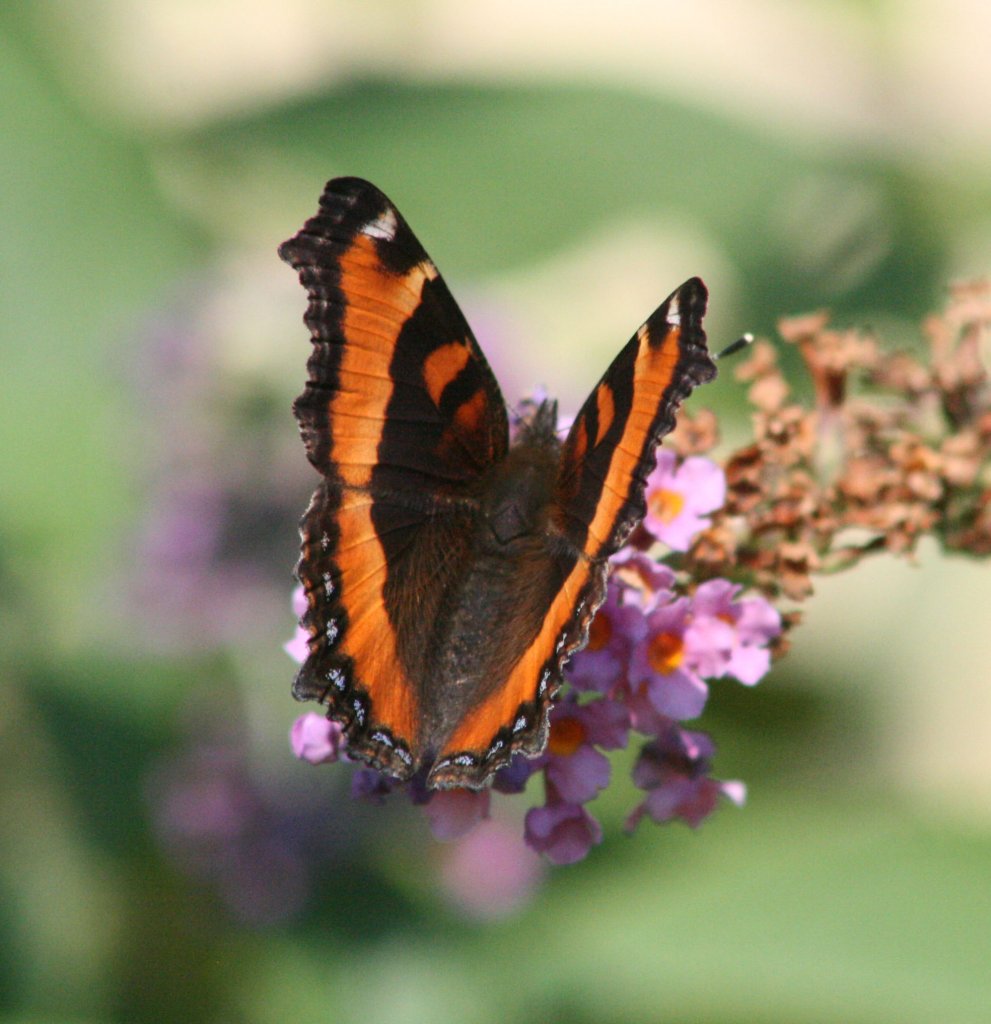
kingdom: Animalia
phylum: Arthropoda
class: Insecta
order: Lepidoptera
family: Nymphalidae
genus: Aglais
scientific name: Aglais milberti
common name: Milbert's Tortoiseshell
